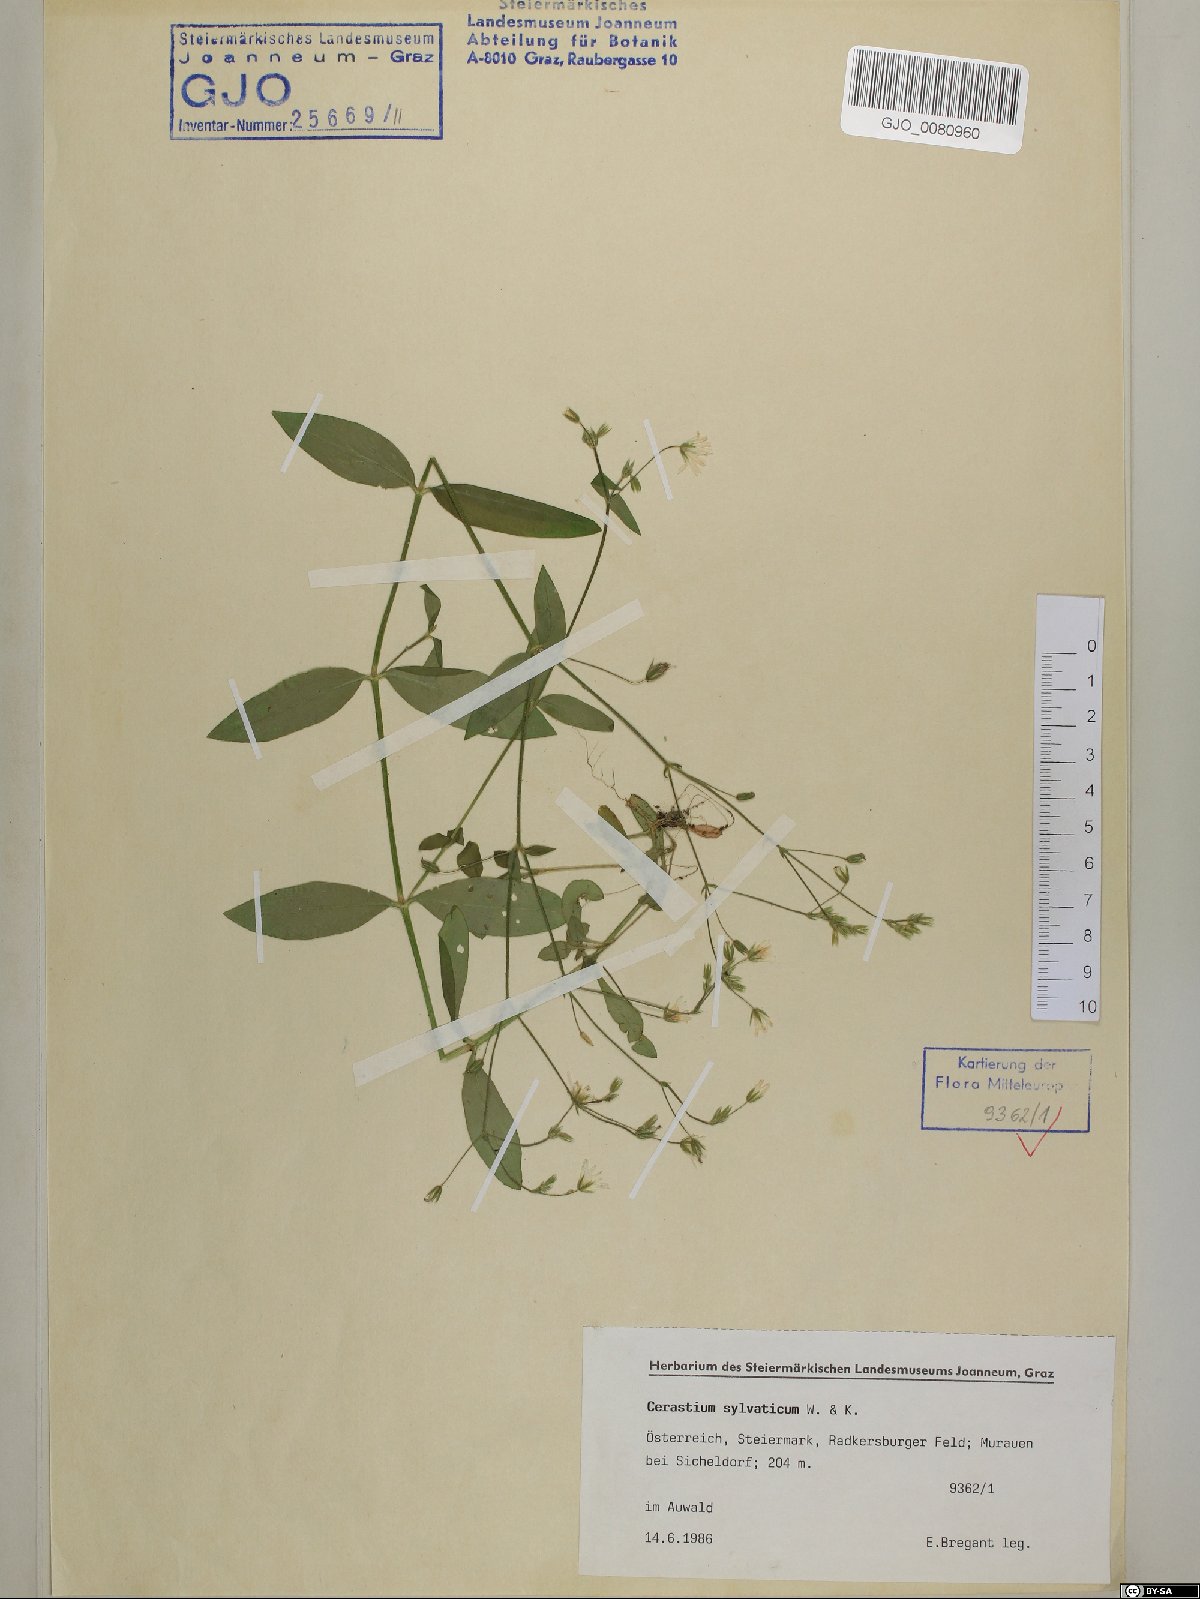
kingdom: Plantae
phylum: Tracheophyta
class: Magnoliopsida
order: Caryophyllales
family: Caryophyllaceae
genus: Cerastium
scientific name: Cerastium sylvaticum
